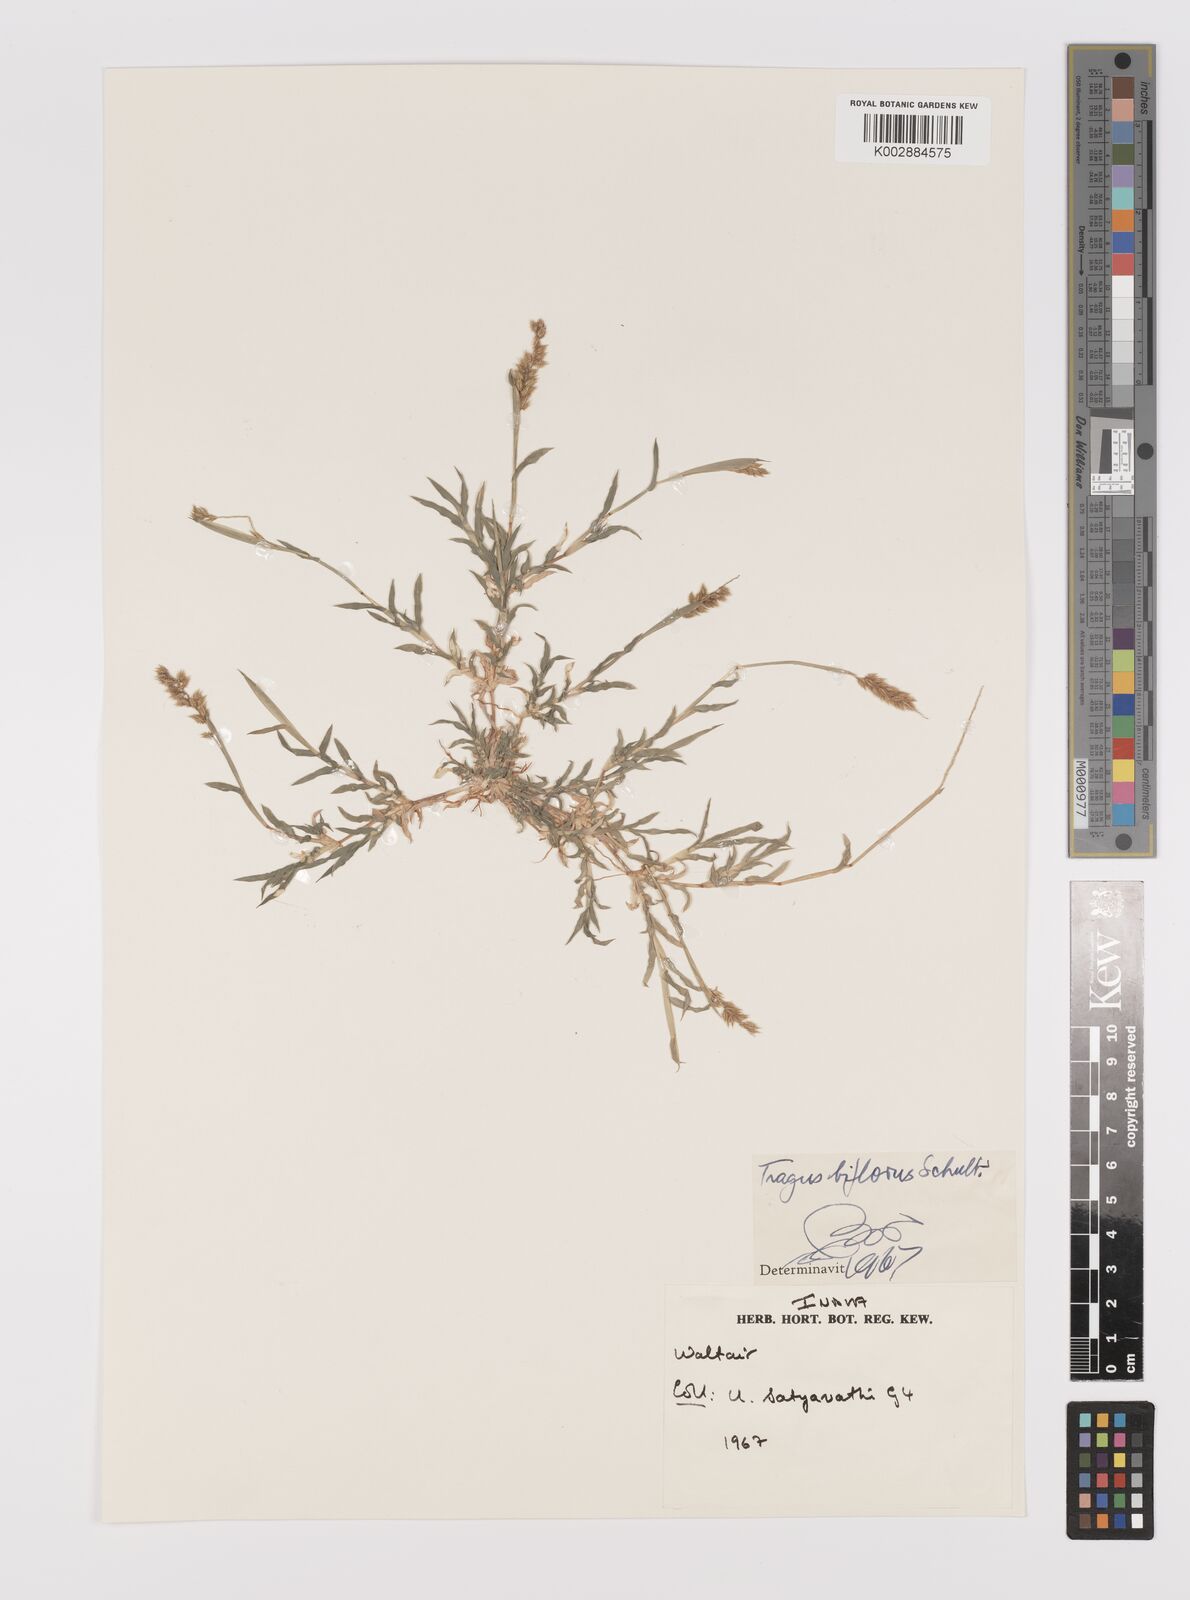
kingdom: Plantae
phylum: Tracheophyta
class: Liliopsida
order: Poales
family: Poaceae
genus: Tragus
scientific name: Tragus mongolorum
